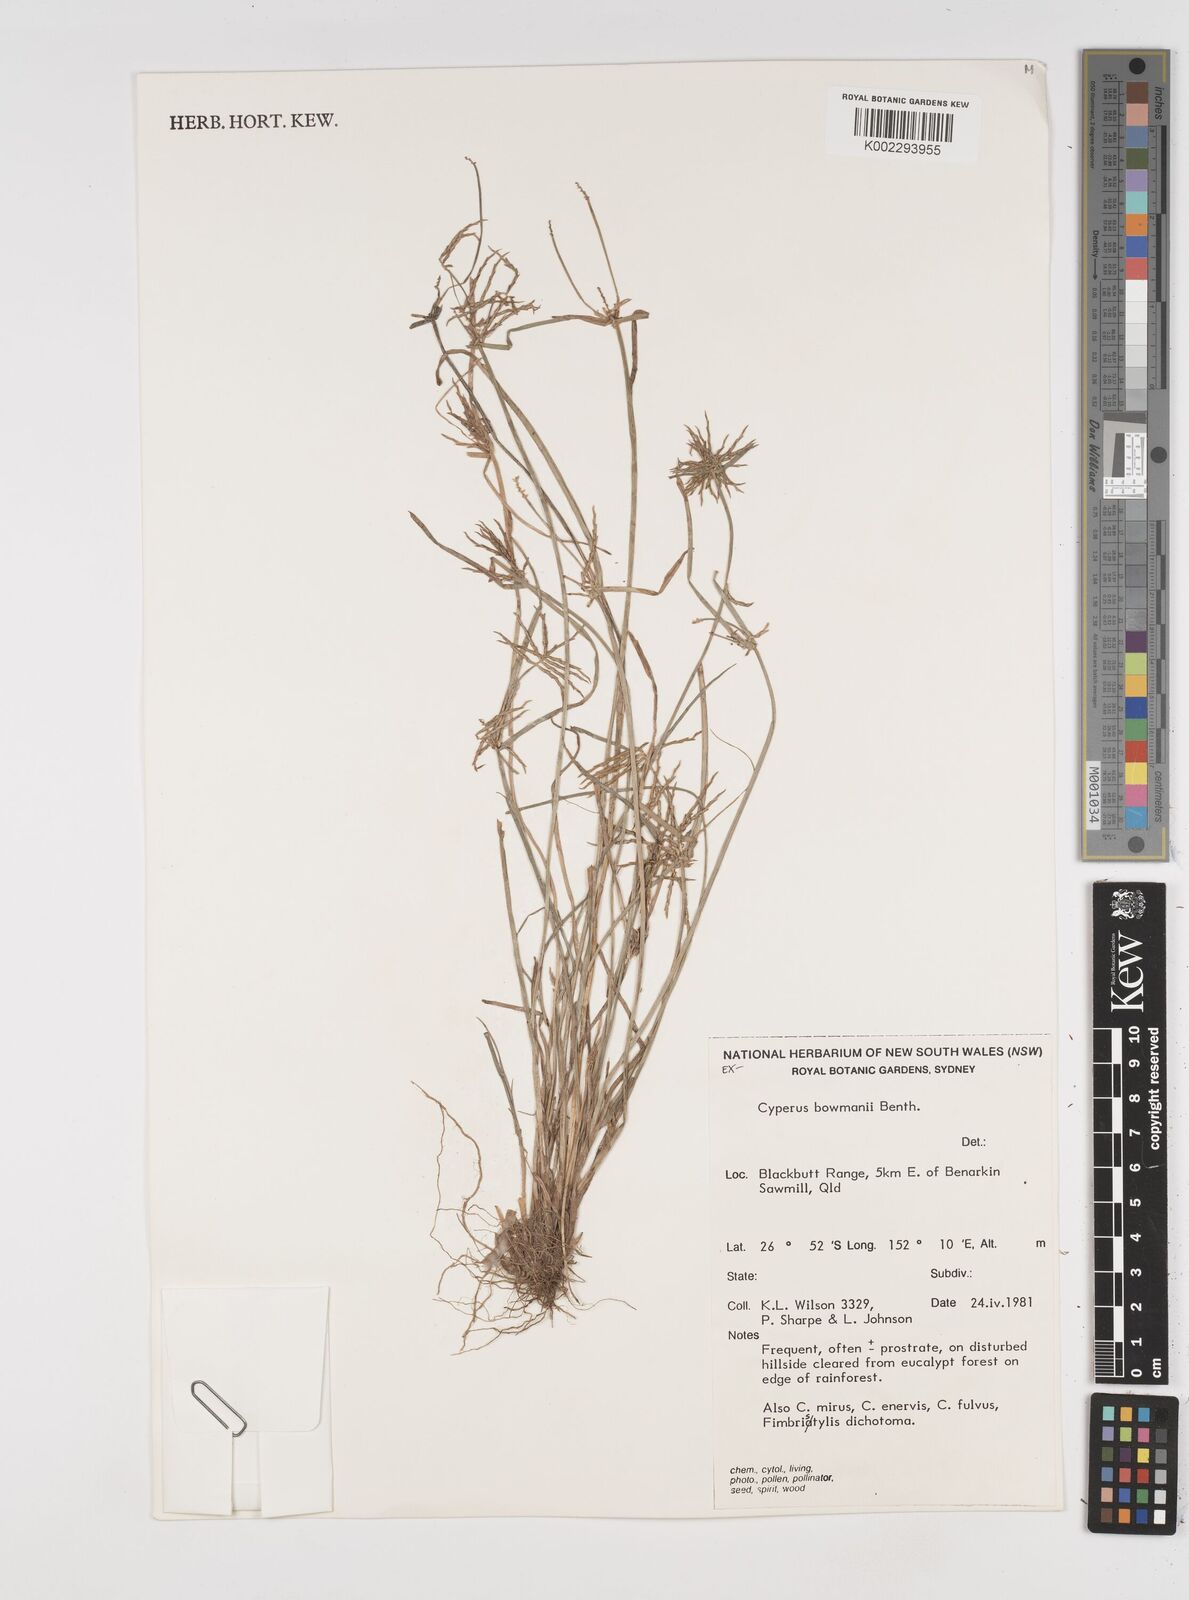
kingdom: Plantae
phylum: Tracheophyta
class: Liliopsida
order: Poales
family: Cyperaceae
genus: Cyperus
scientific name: Cyperus bowmanni
